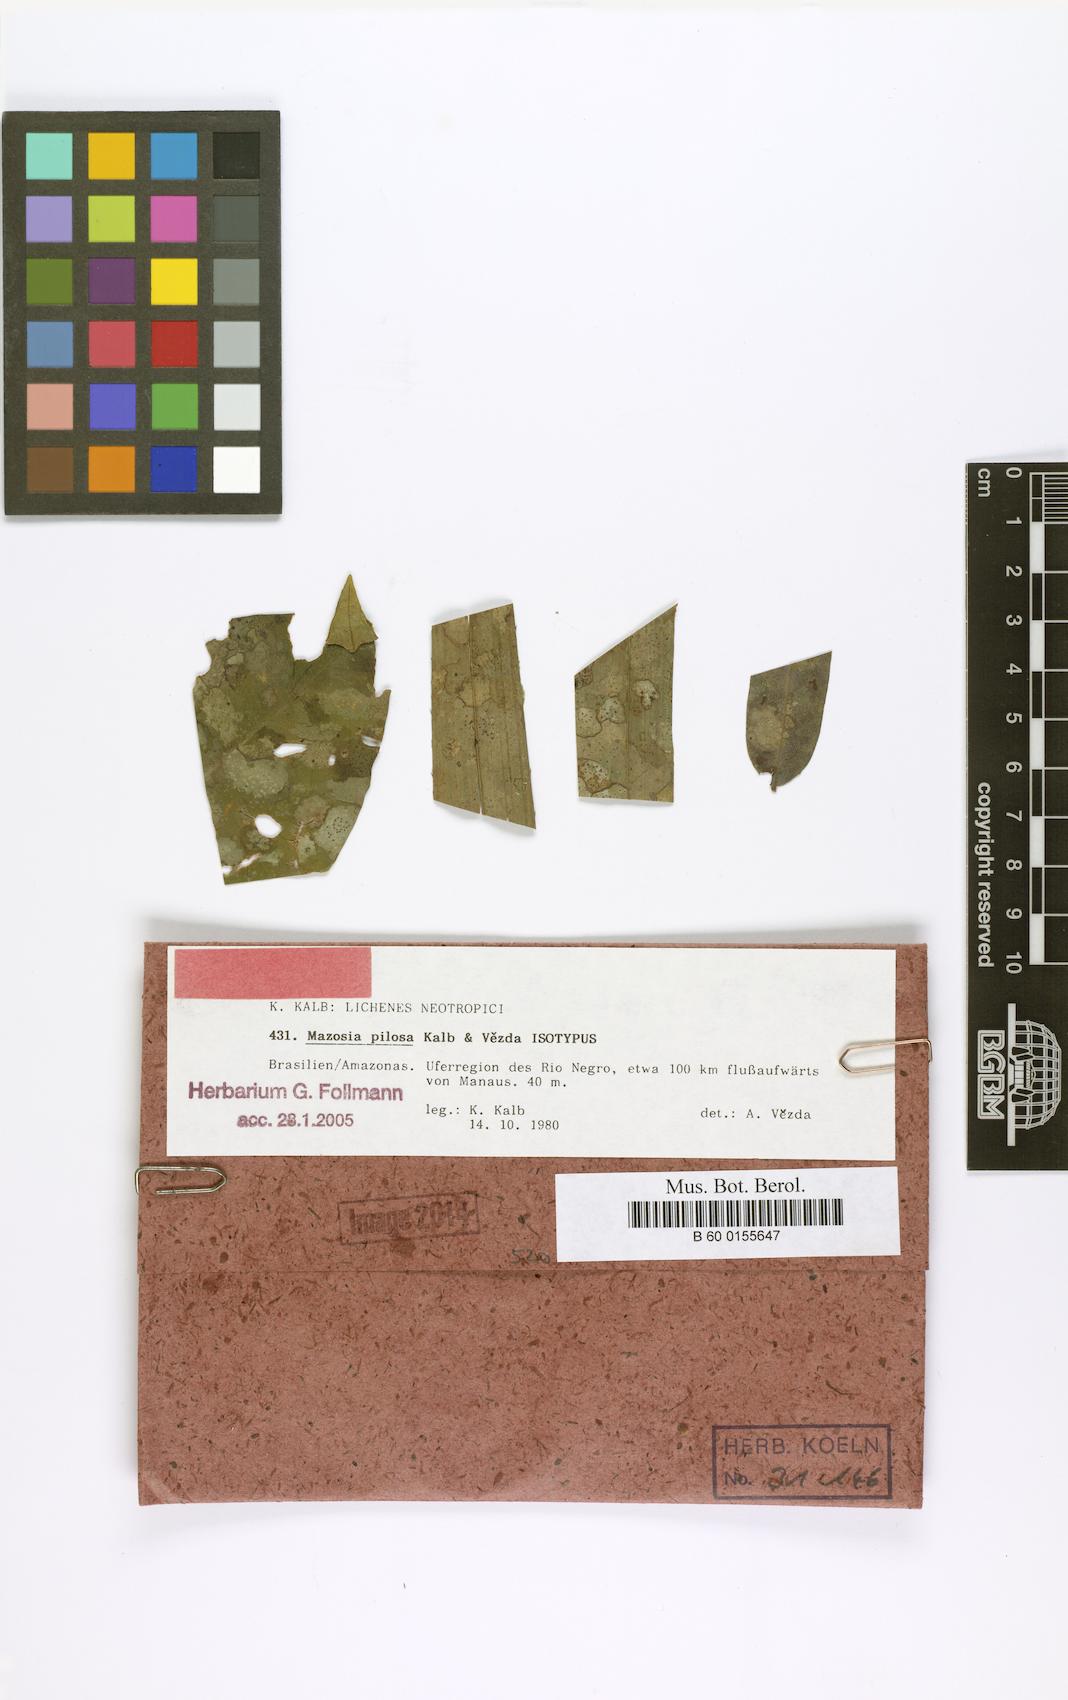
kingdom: Fungi
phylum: Ascomycota
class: Arthoniomycetes
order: Arthoniales
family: Roccellaceae
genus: Mazosia
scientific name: Mazosia pilosa
